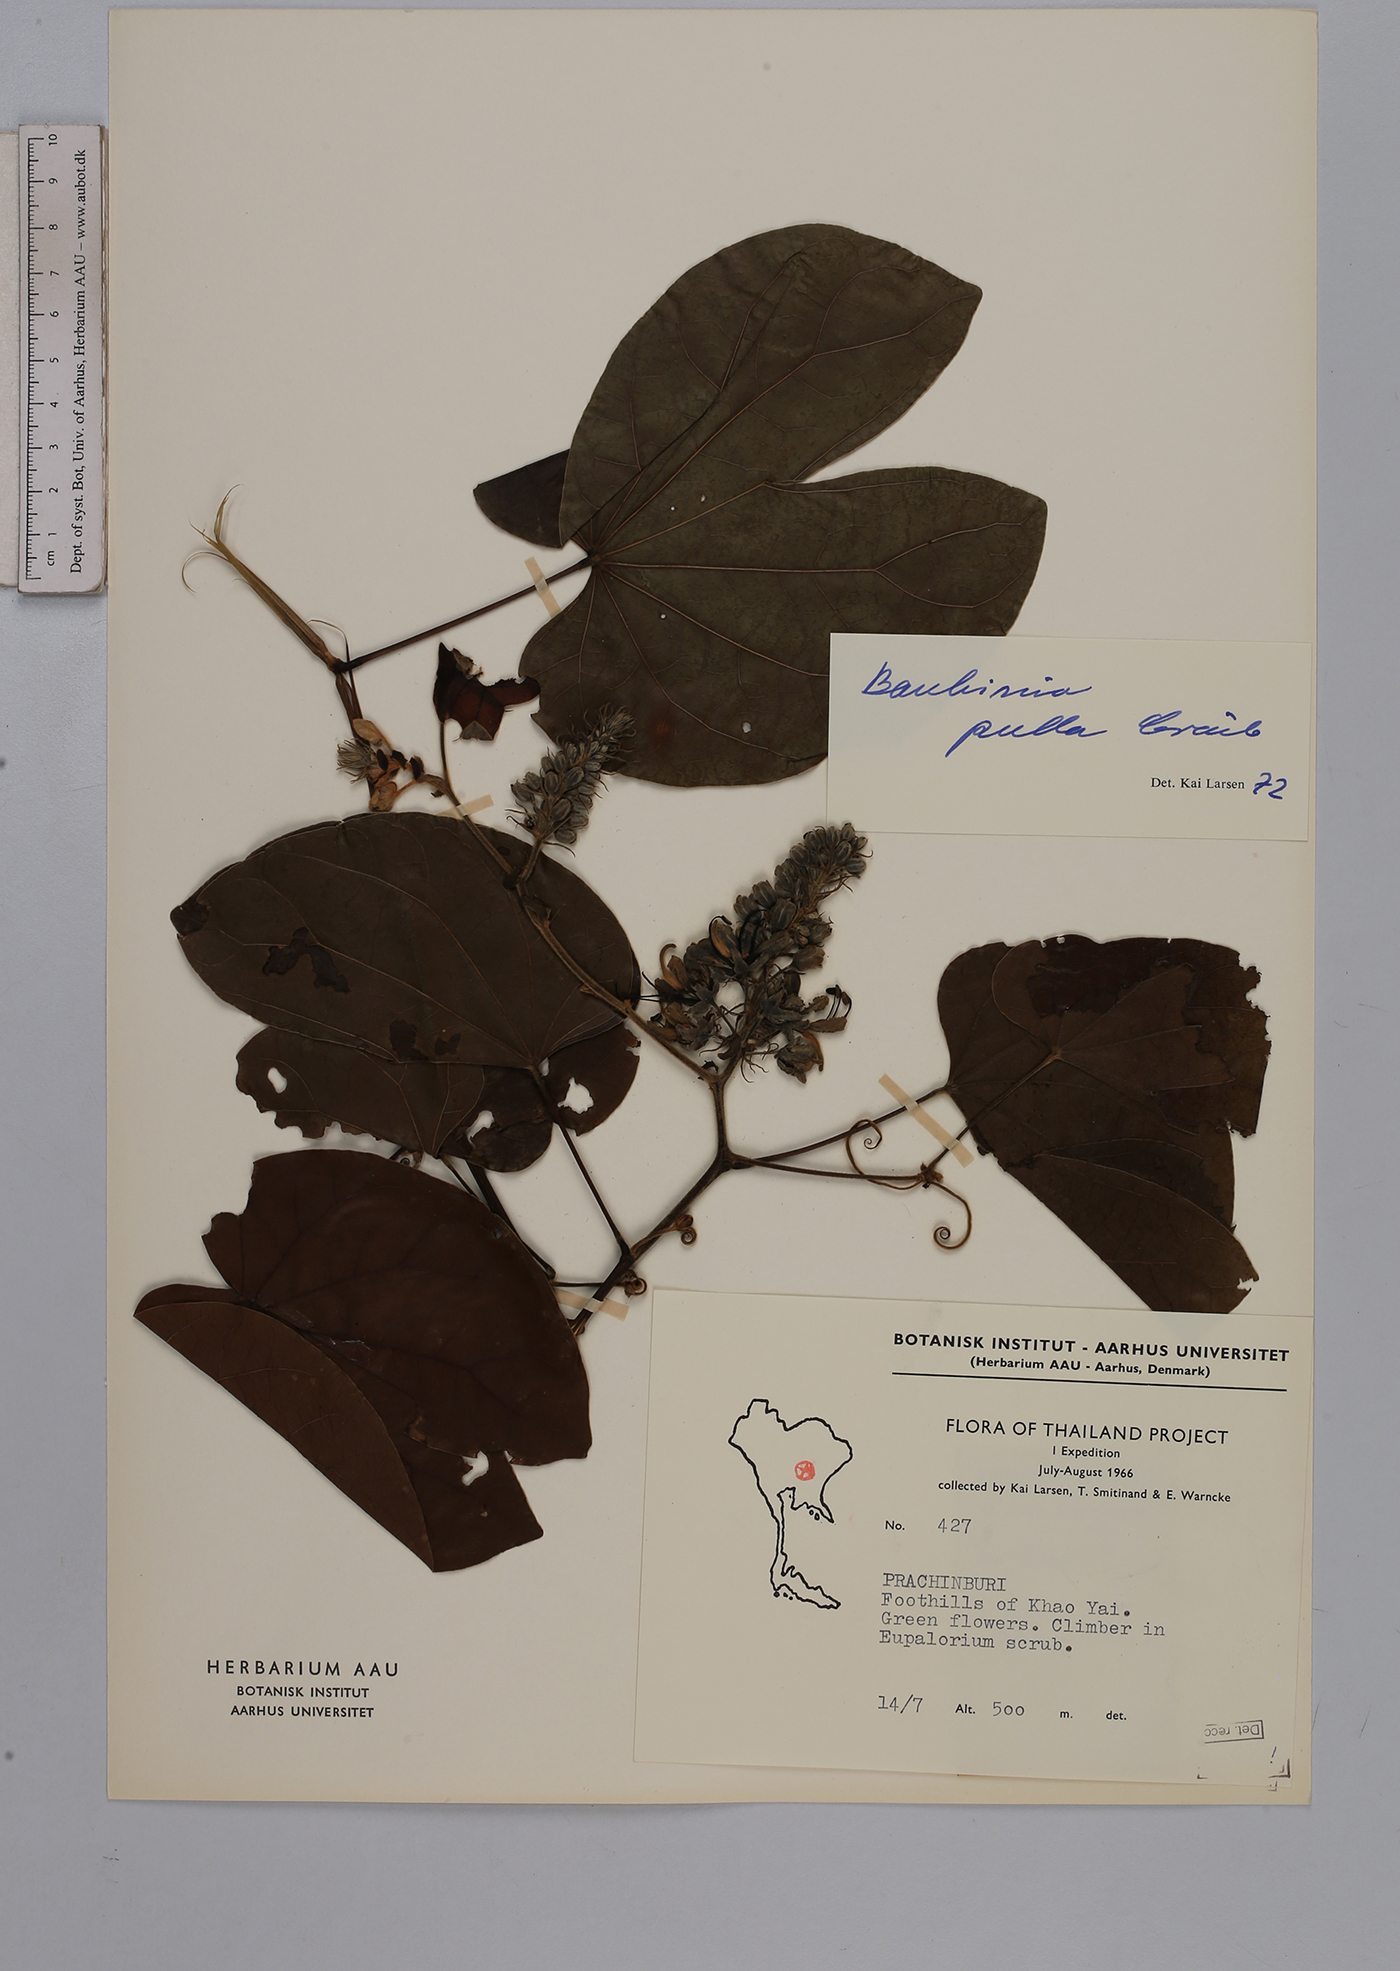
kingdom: Plantae
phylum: Tracheophyta
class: Magnoliopsida
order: Fabales
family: Fabaceae
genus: Phanera
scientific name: Phanera pulla
